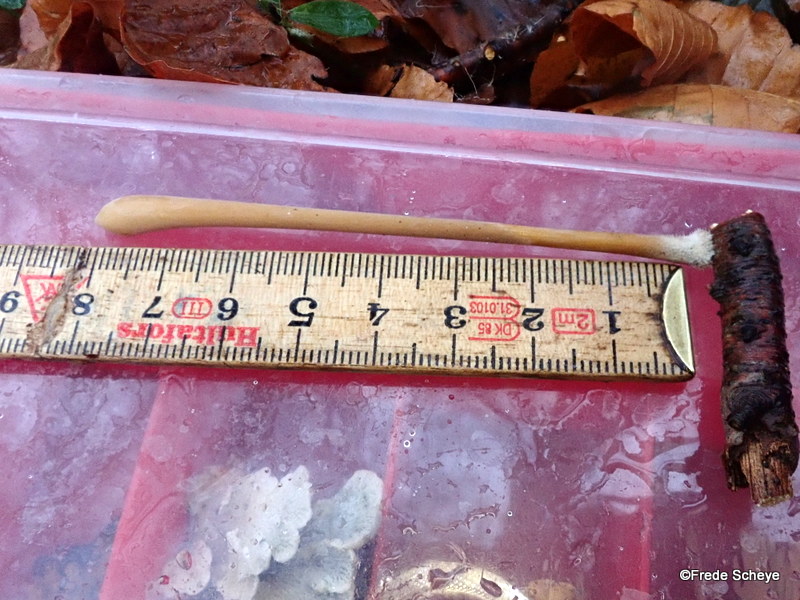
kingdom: Fungi
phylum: Basidiomycota
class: Agaricomycetes
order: Agaricales
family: Typhulaceae
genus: Typhula
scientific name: Typhula fistulosa
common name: pibet rørkølle
